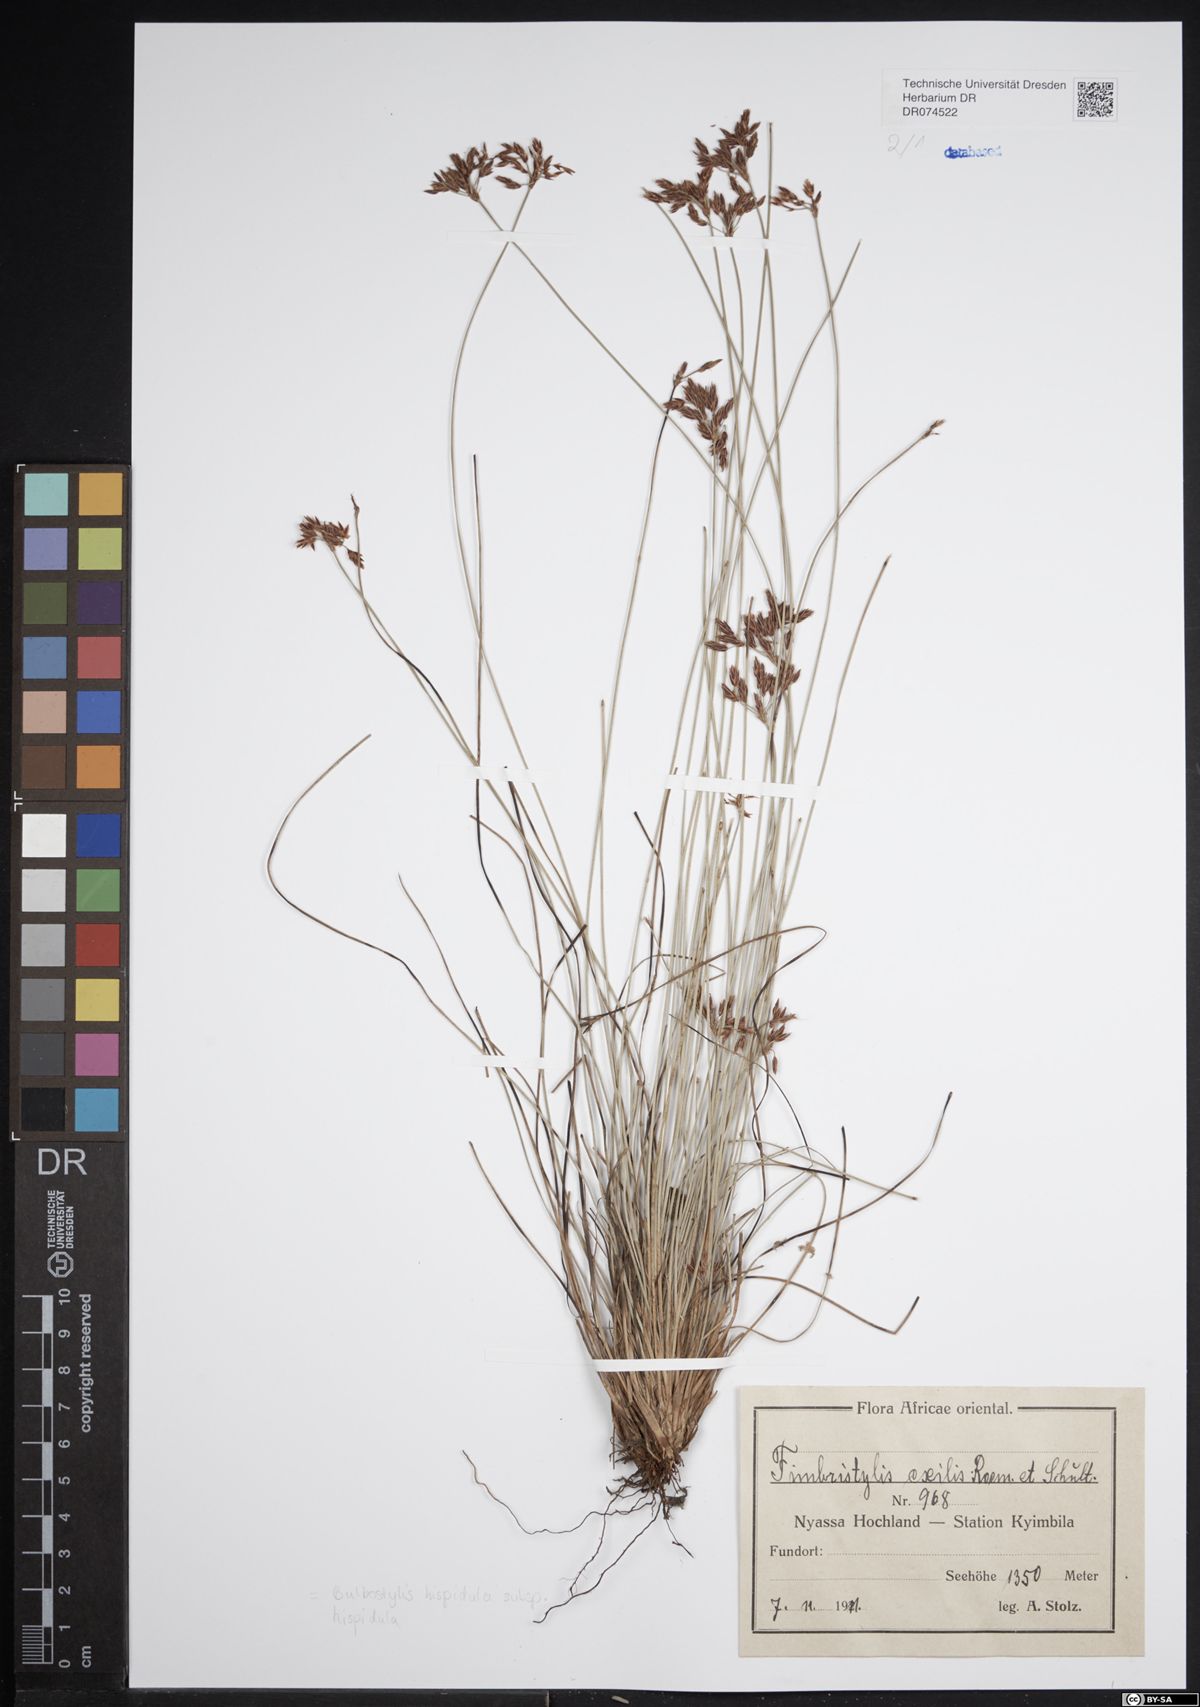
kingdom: Plantae
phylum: Tracheophyta
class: Liliopsida
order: Poales
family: Cyperaceae
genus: Bulbostylis
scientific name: Bulbostylis hispidula
